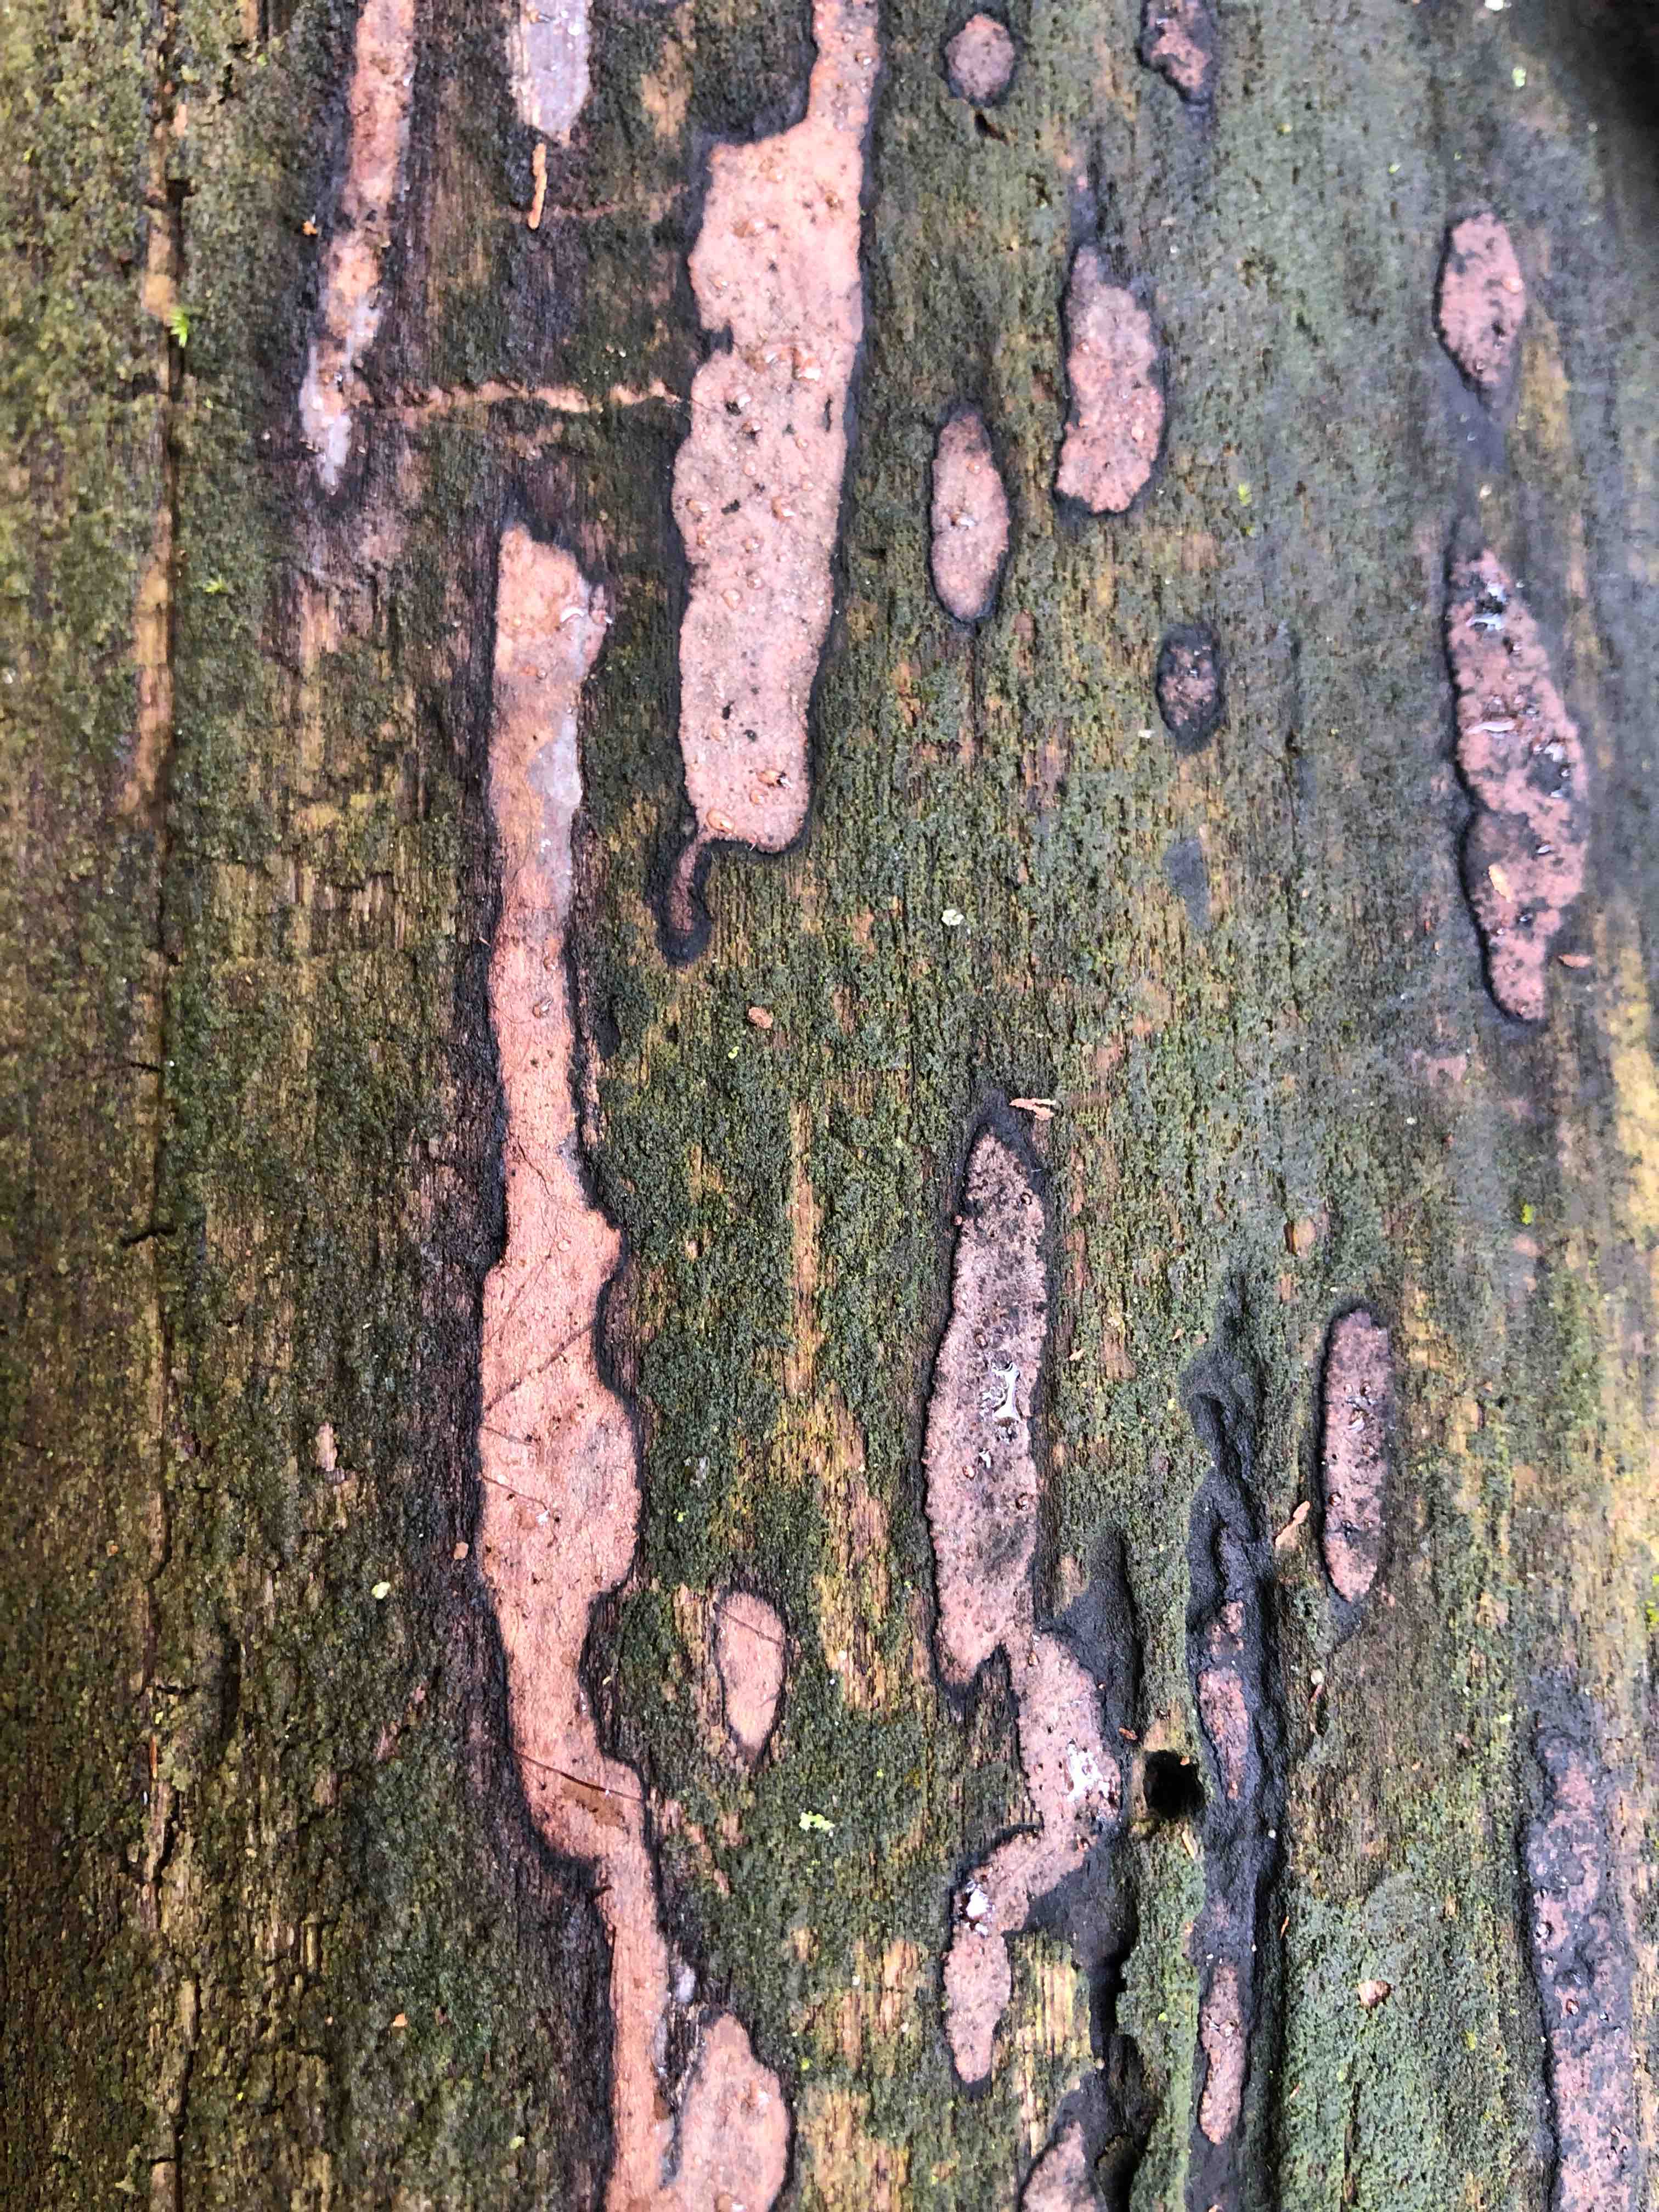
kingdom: Fungi
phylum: Ascomycota
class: Sordariomycetes
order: Xylariales
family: Hypoxylaceae
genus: Hypoxylon
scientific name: Hypoxylon petriniae
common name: nedsænket kulbær
